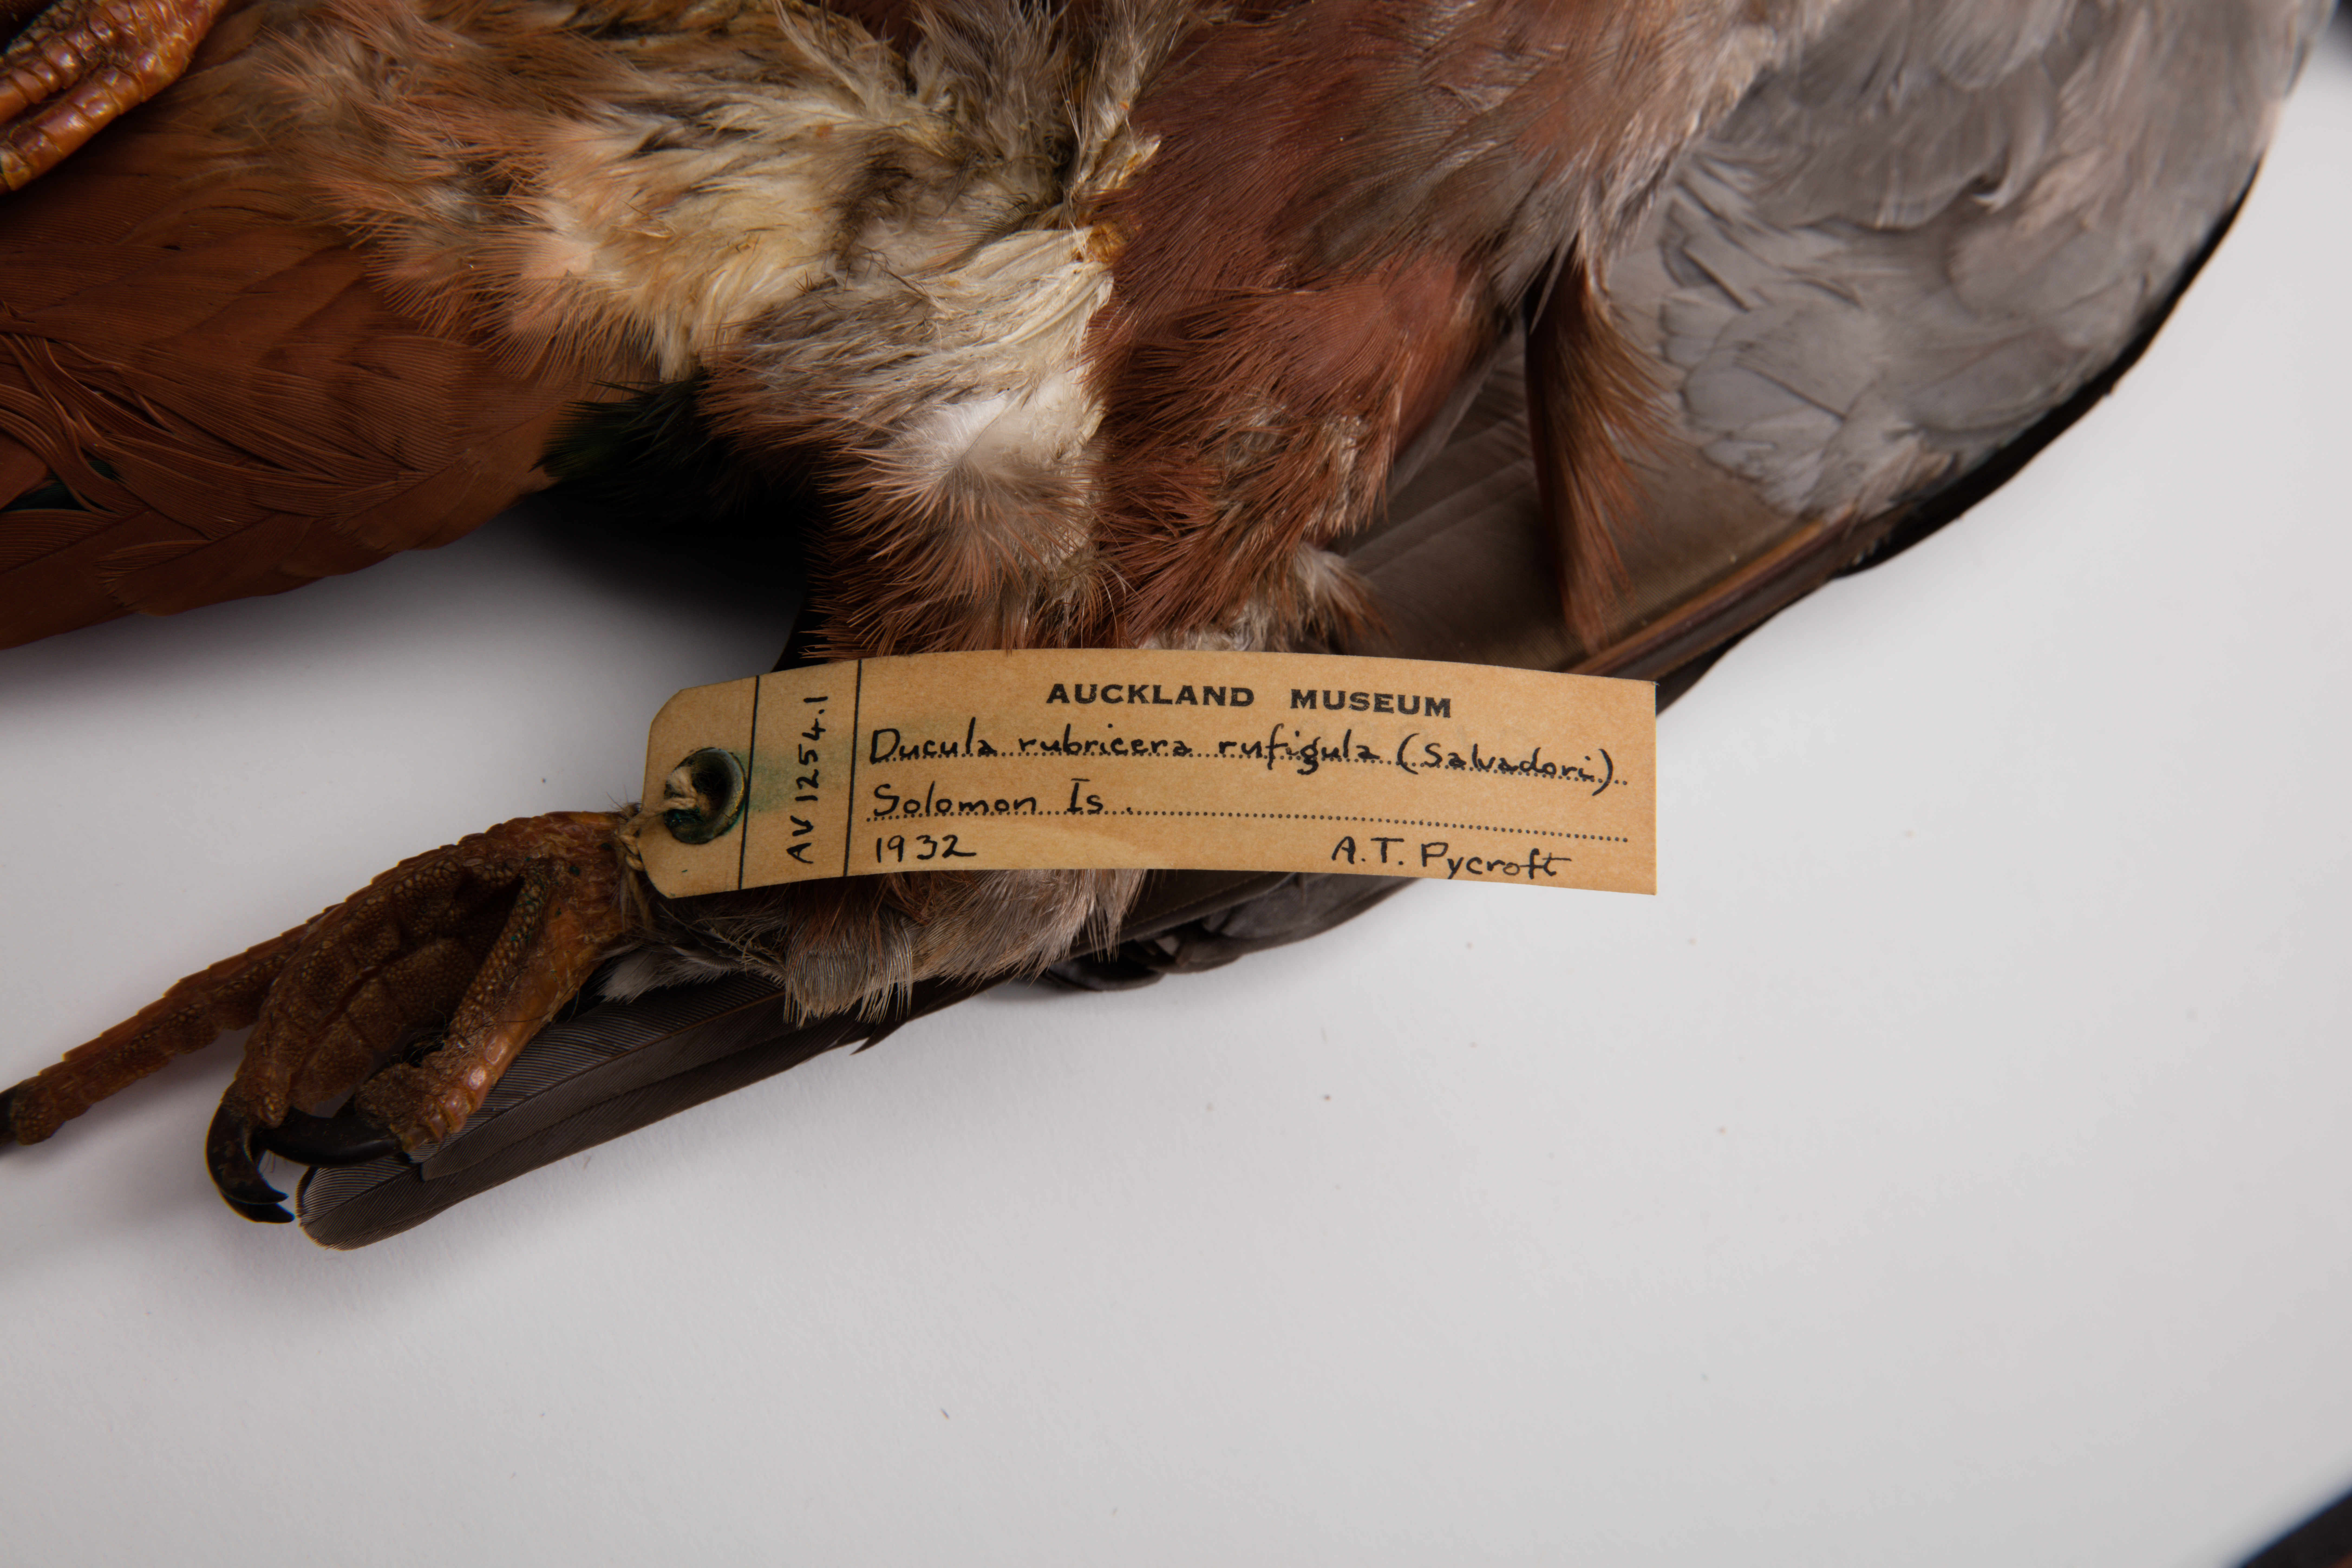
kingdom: Animalia
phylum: Chordata
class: Aves
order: Columbiformes
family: Columbidae
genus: Ducula
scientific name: Ducula rubricera
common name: Red-knobbed imperial pigeon
